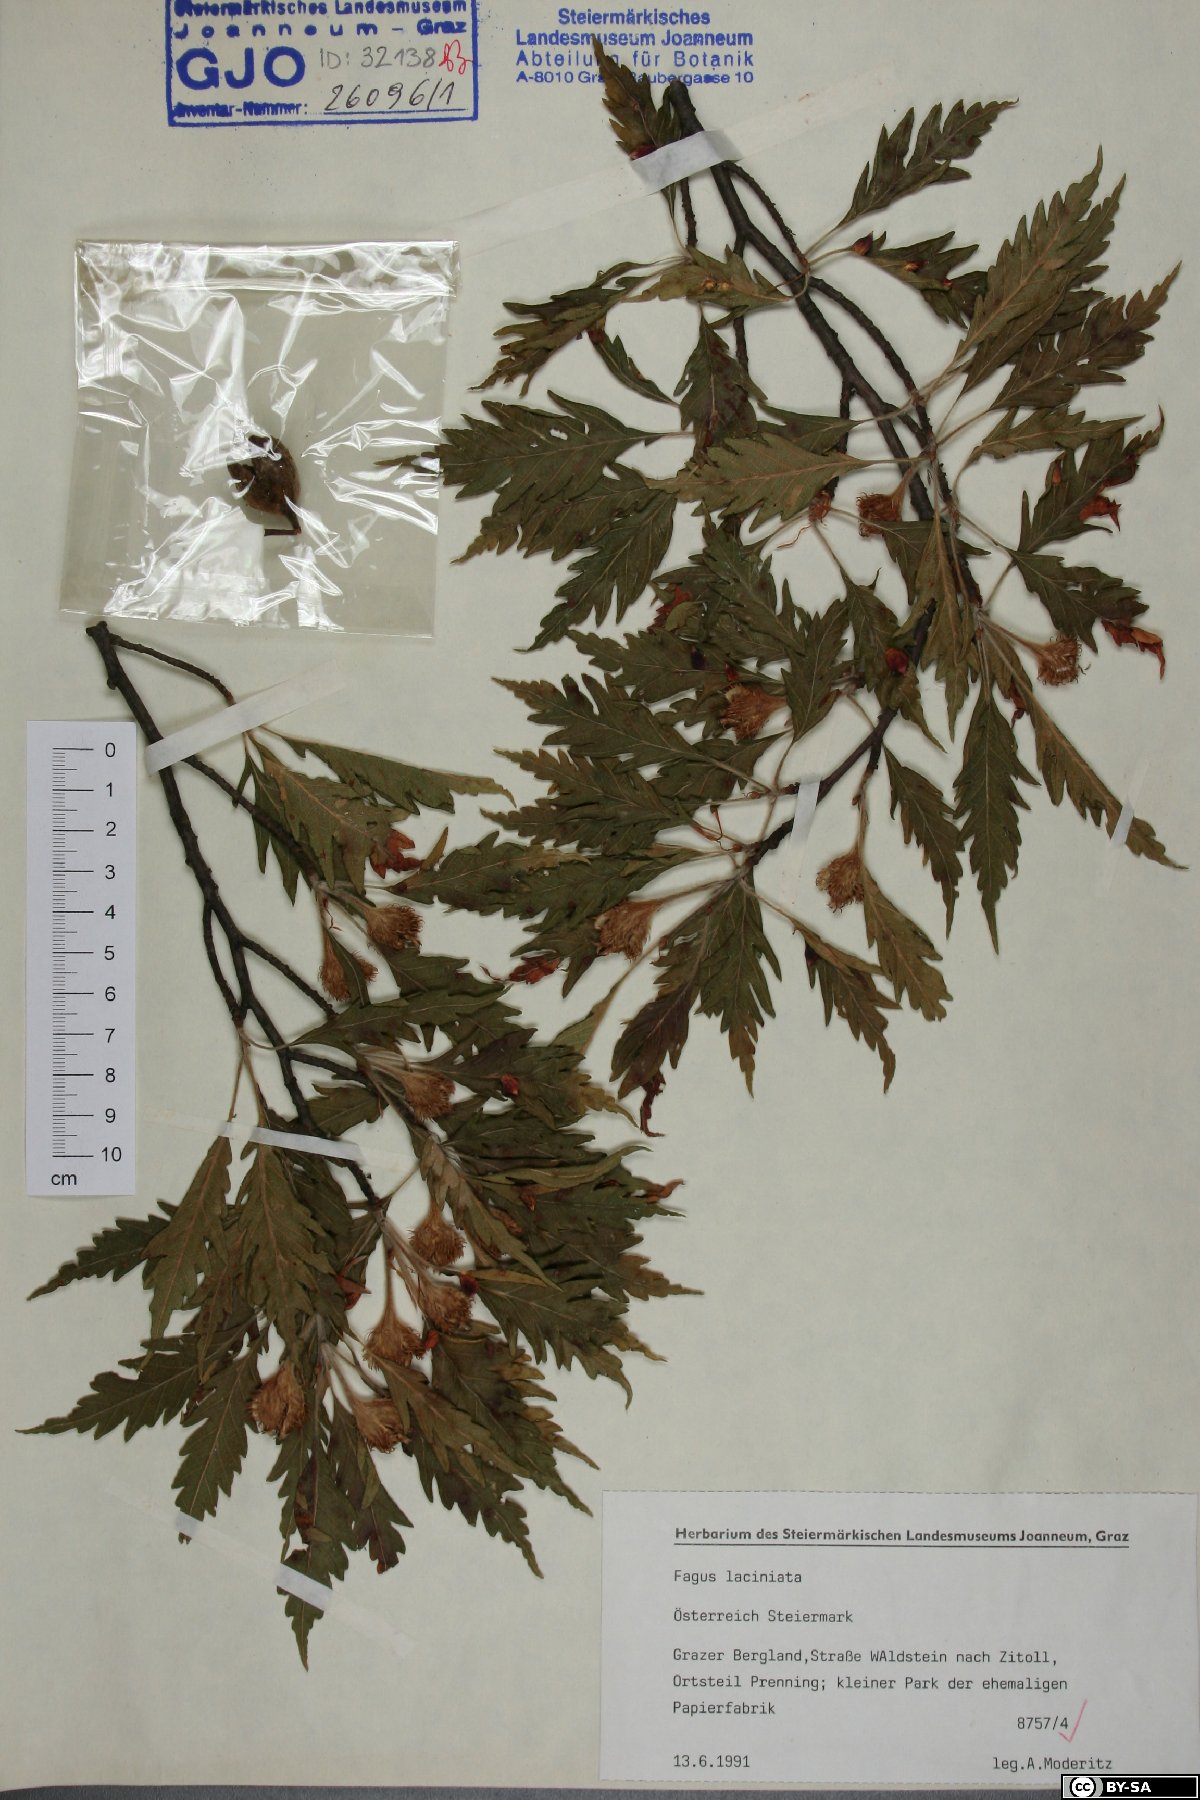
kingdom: Plantae
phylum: Tracheophyta
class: Magnoliopsida
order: Fagales
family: Fagaceae
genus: Fagus
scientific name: Fagus sylvatica
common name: Beech
